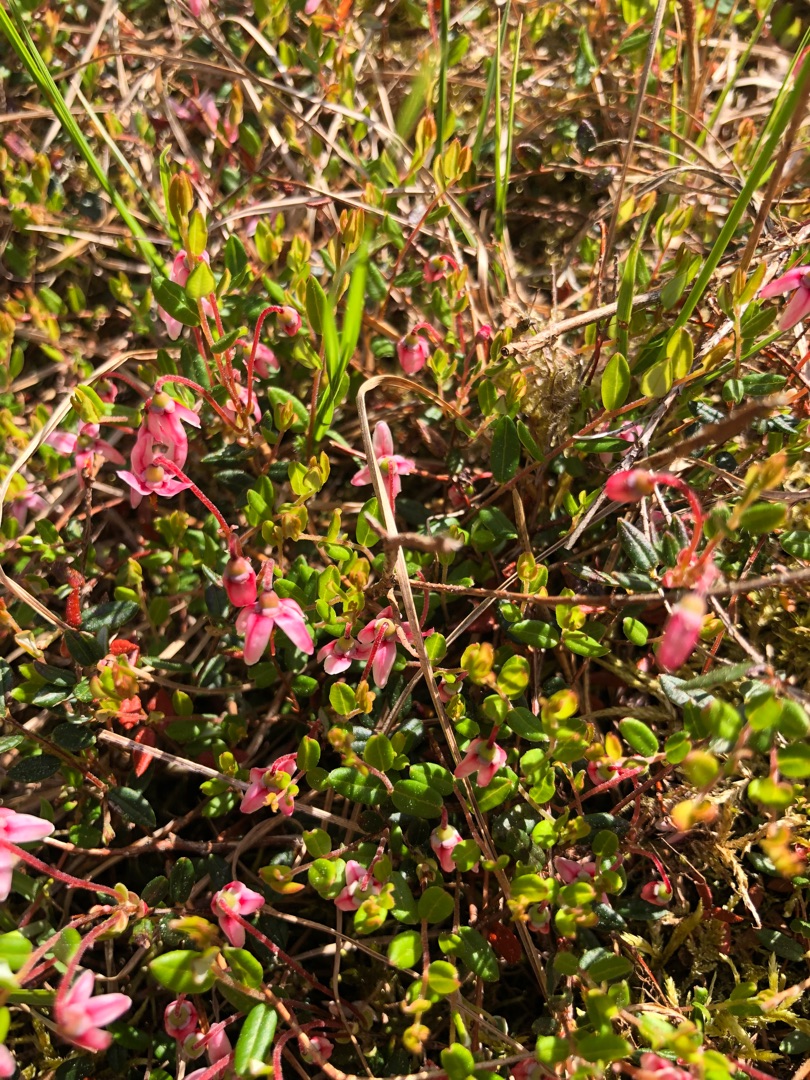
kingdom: Plantae
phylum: Tracheophyta
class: Magnoliopsida
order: Ericales
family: Ericaceae
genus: Vaccinium
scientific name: Vaccinium oxycoccos
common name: Tranebær
